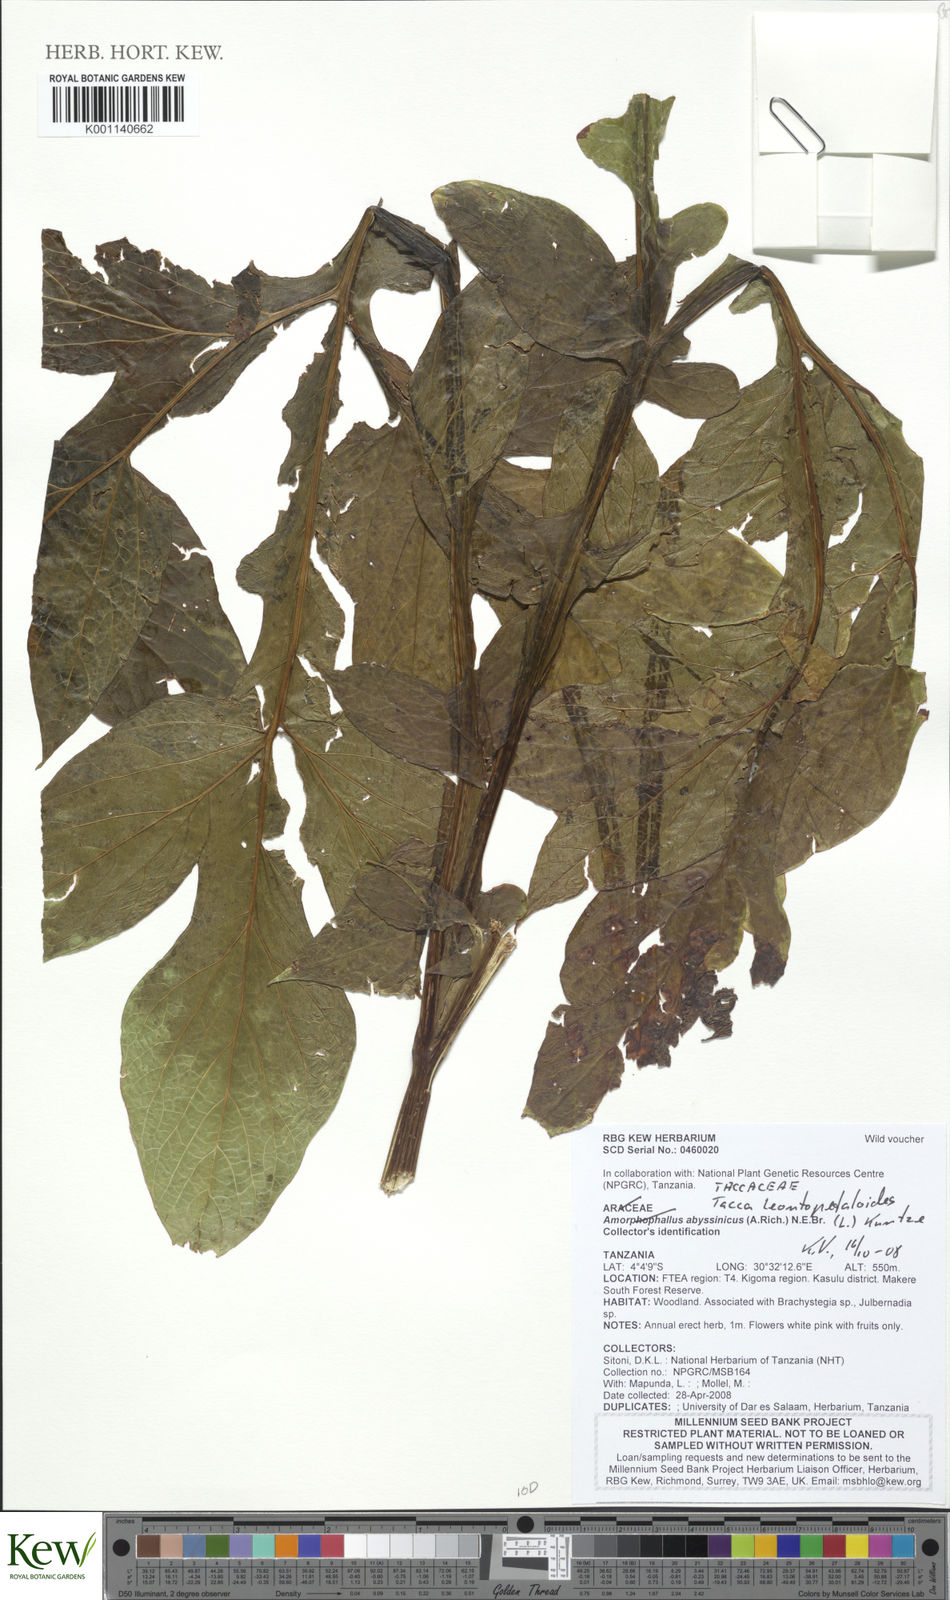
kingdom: Plantae
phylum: Tracheophyta
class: Liliopsida
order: Dioscoreales
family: Dioscoreaceae
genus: Tacca
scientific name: Tacca leontopetaloides
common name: Arrowroot
